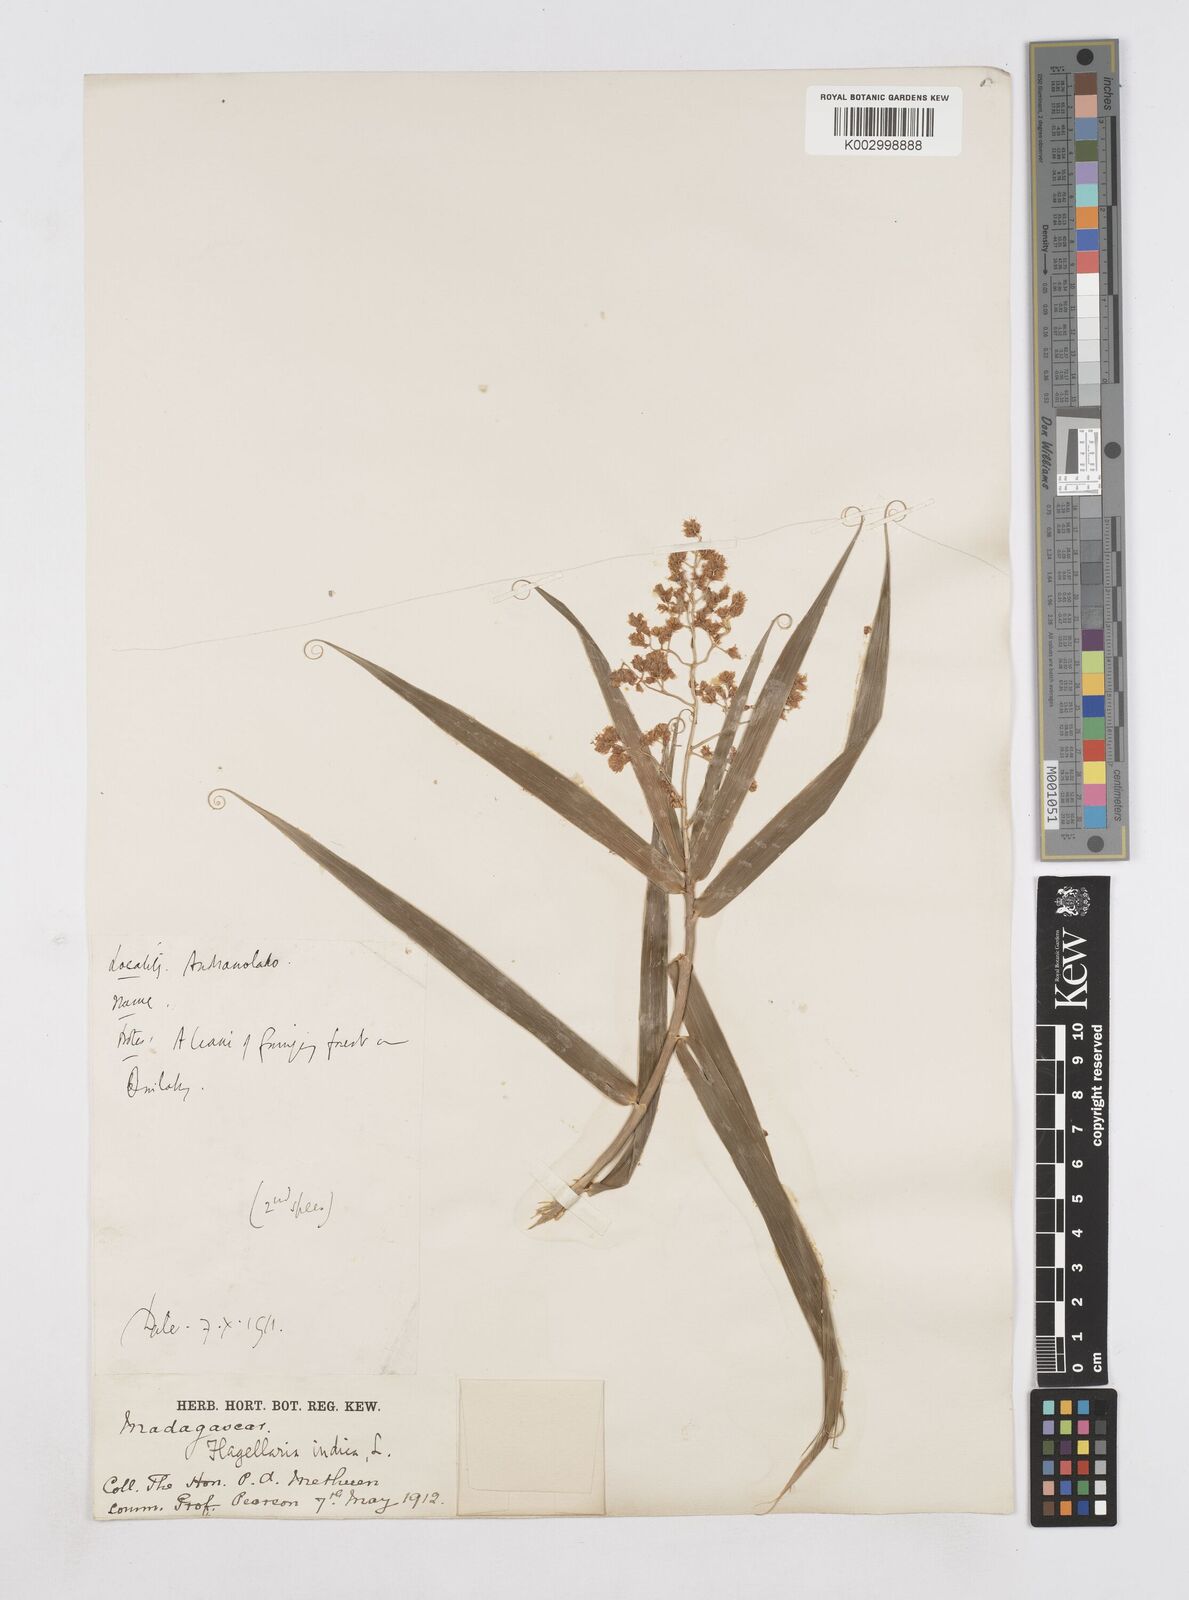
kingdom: Plantae
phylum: Tracheophyta
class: Liliopsida
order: Poales
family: Flagellariaceae
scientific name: Flagellariaceae
